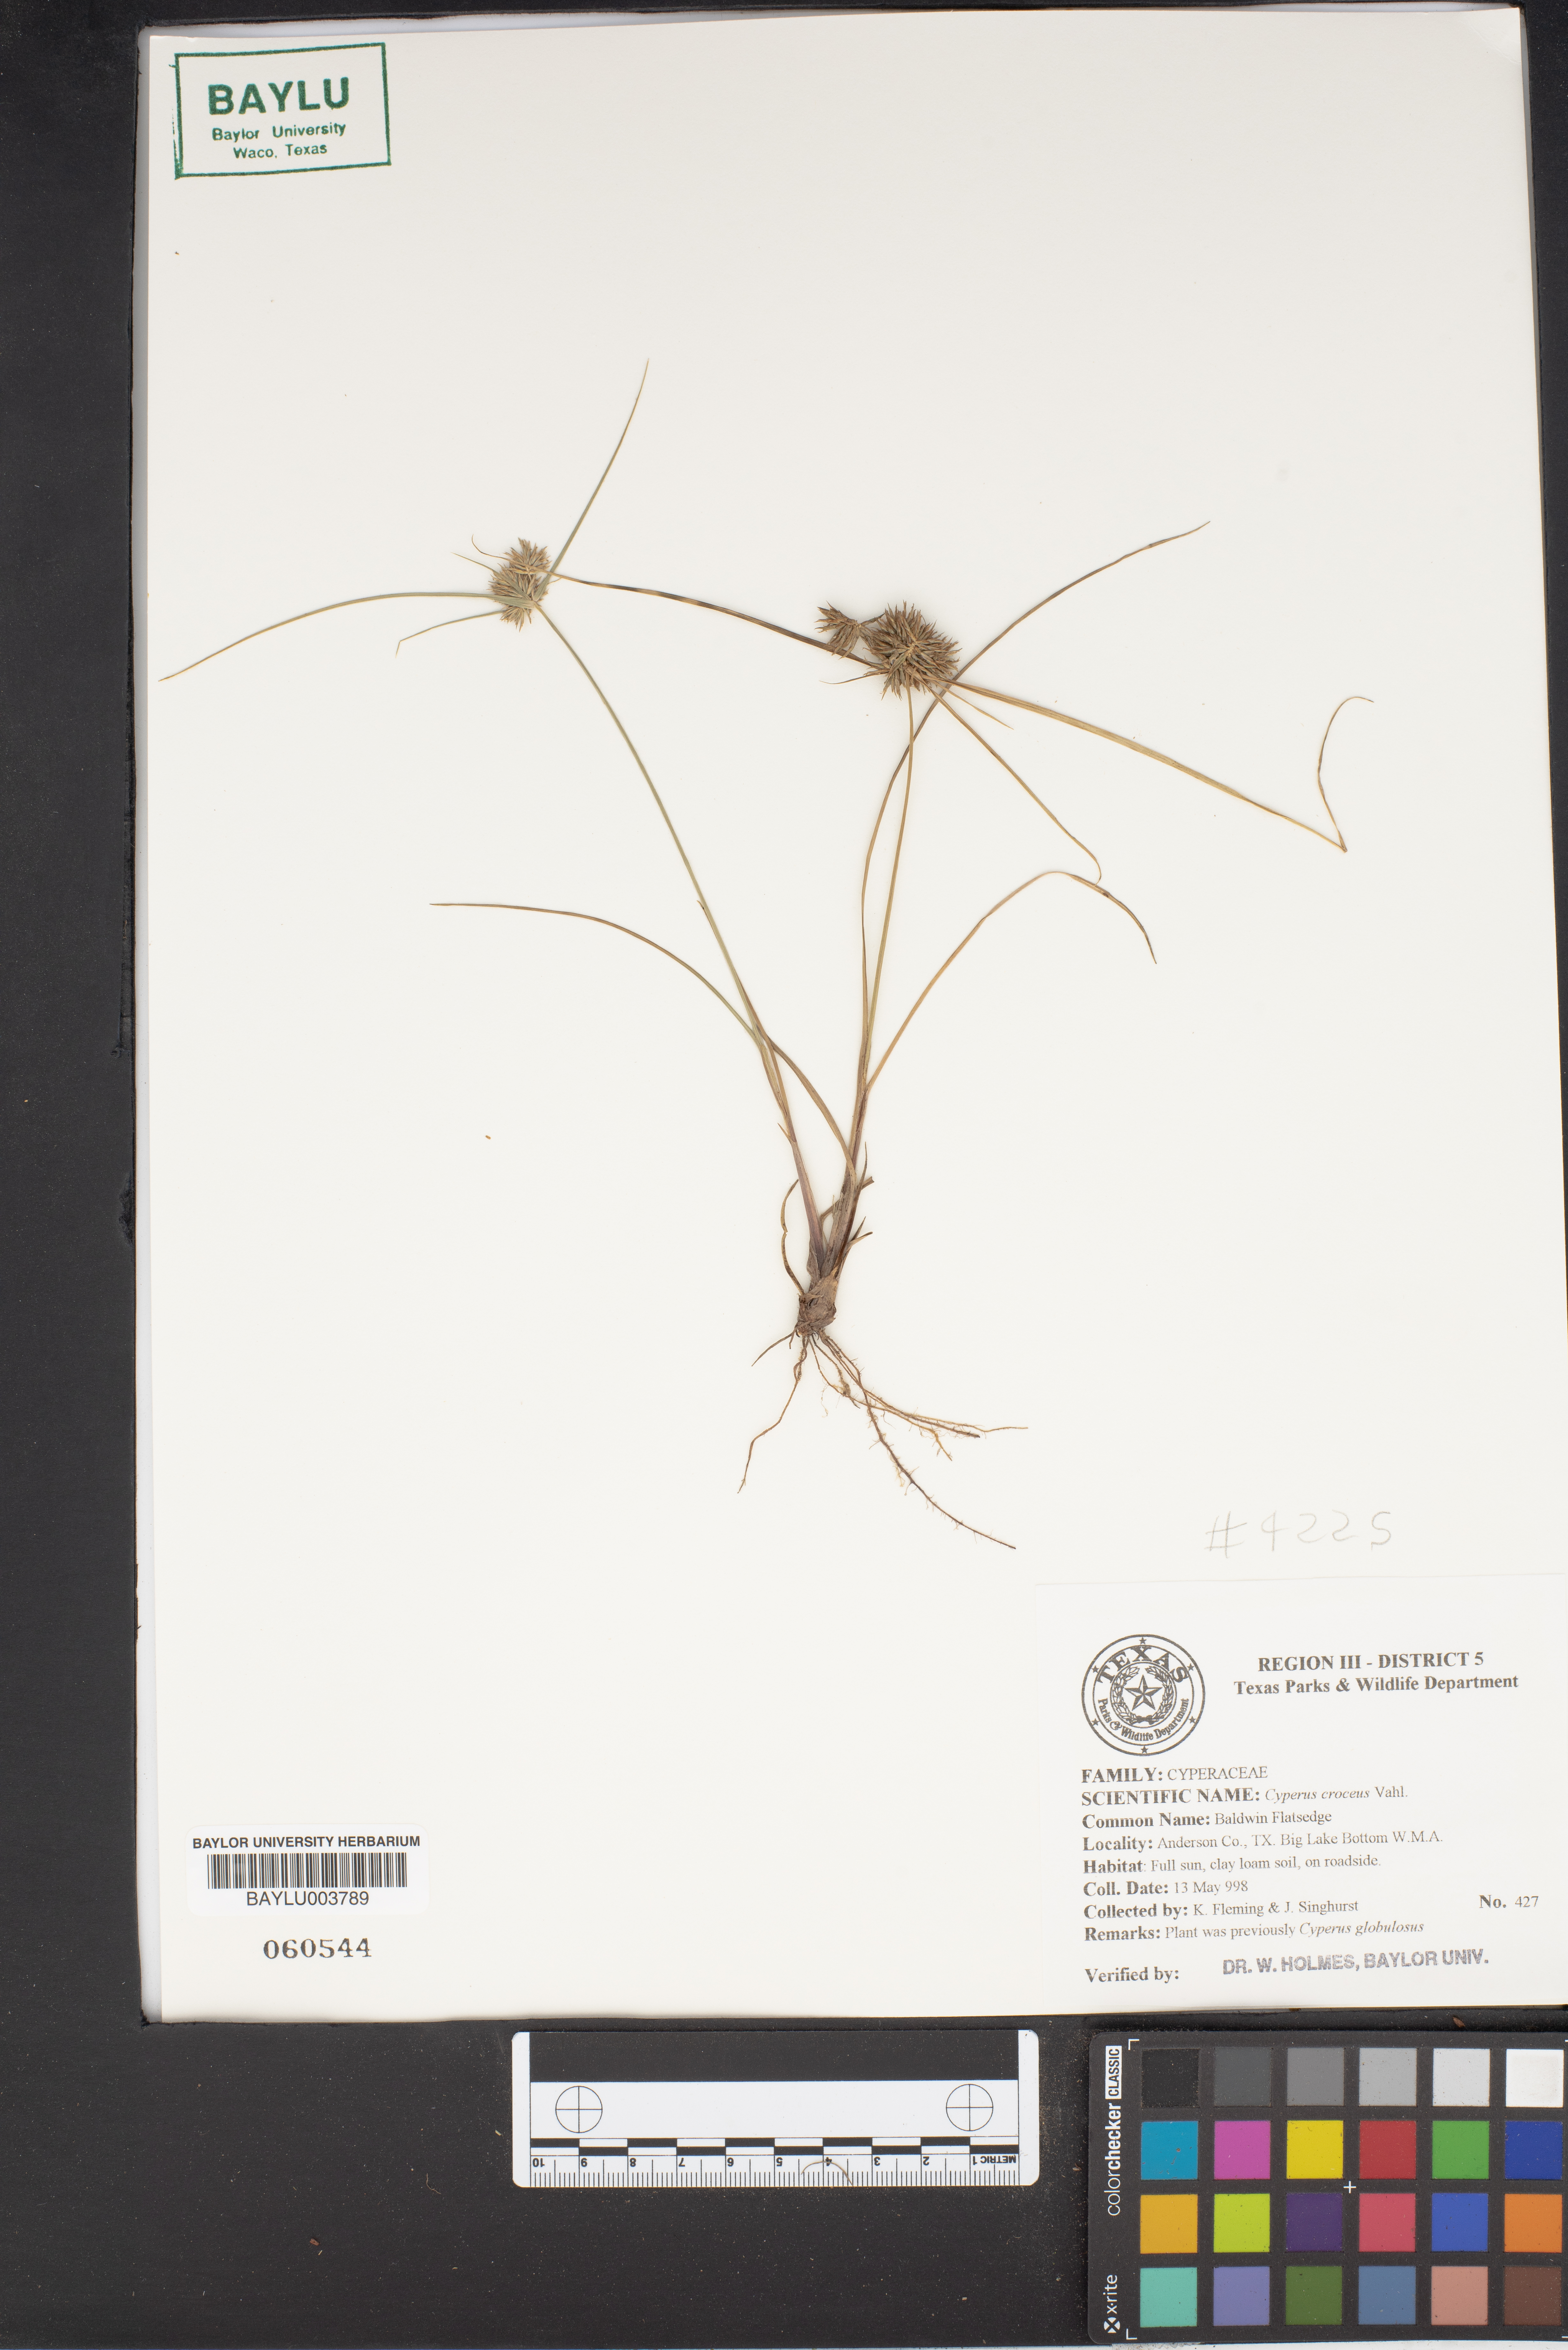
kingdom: Plantae
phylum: Tracheophyta
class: Liliopsida
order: Poales
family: Cyperaceae
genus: Cyperus
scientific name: Cyperus croceus
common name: Baldwin's flatsedge
